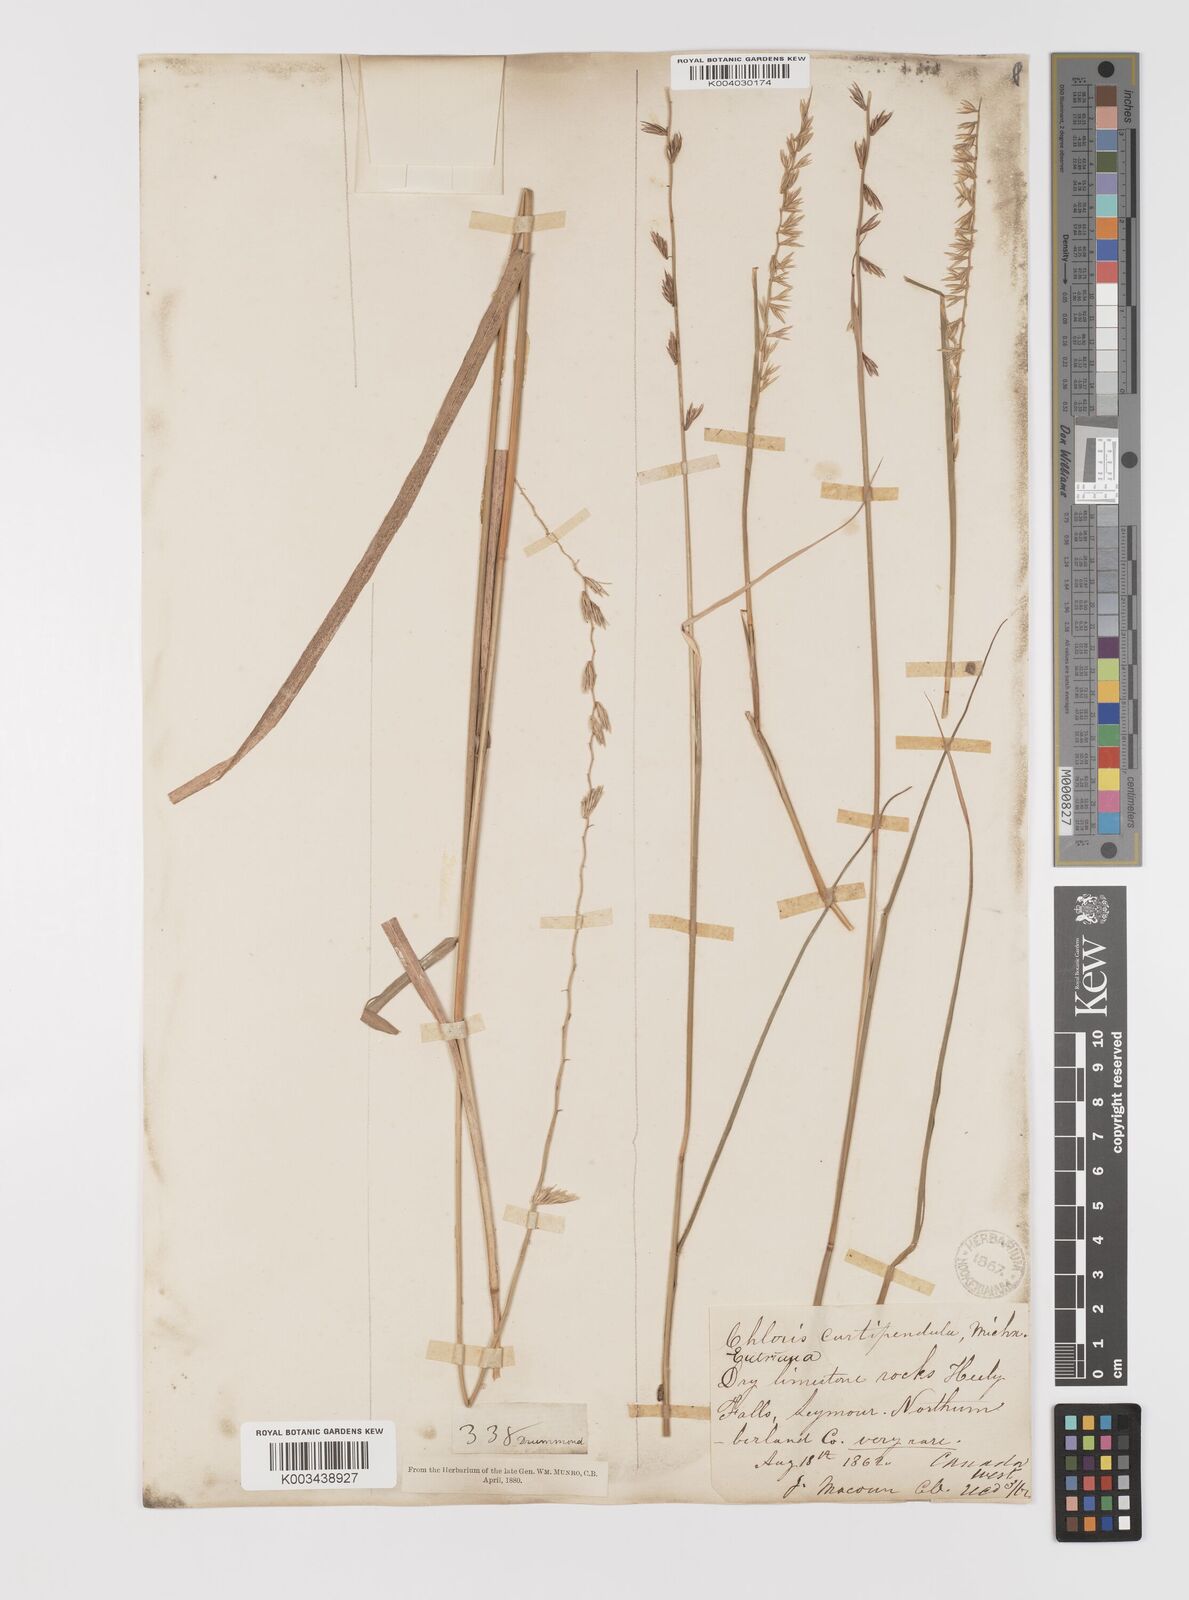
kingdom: Plantae
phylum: Tracheophyta
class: Liliopsida
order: Poales
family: Poaceae
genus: Bouteloua
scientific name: Bouteloua curtipendula
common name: Side-oats grama
